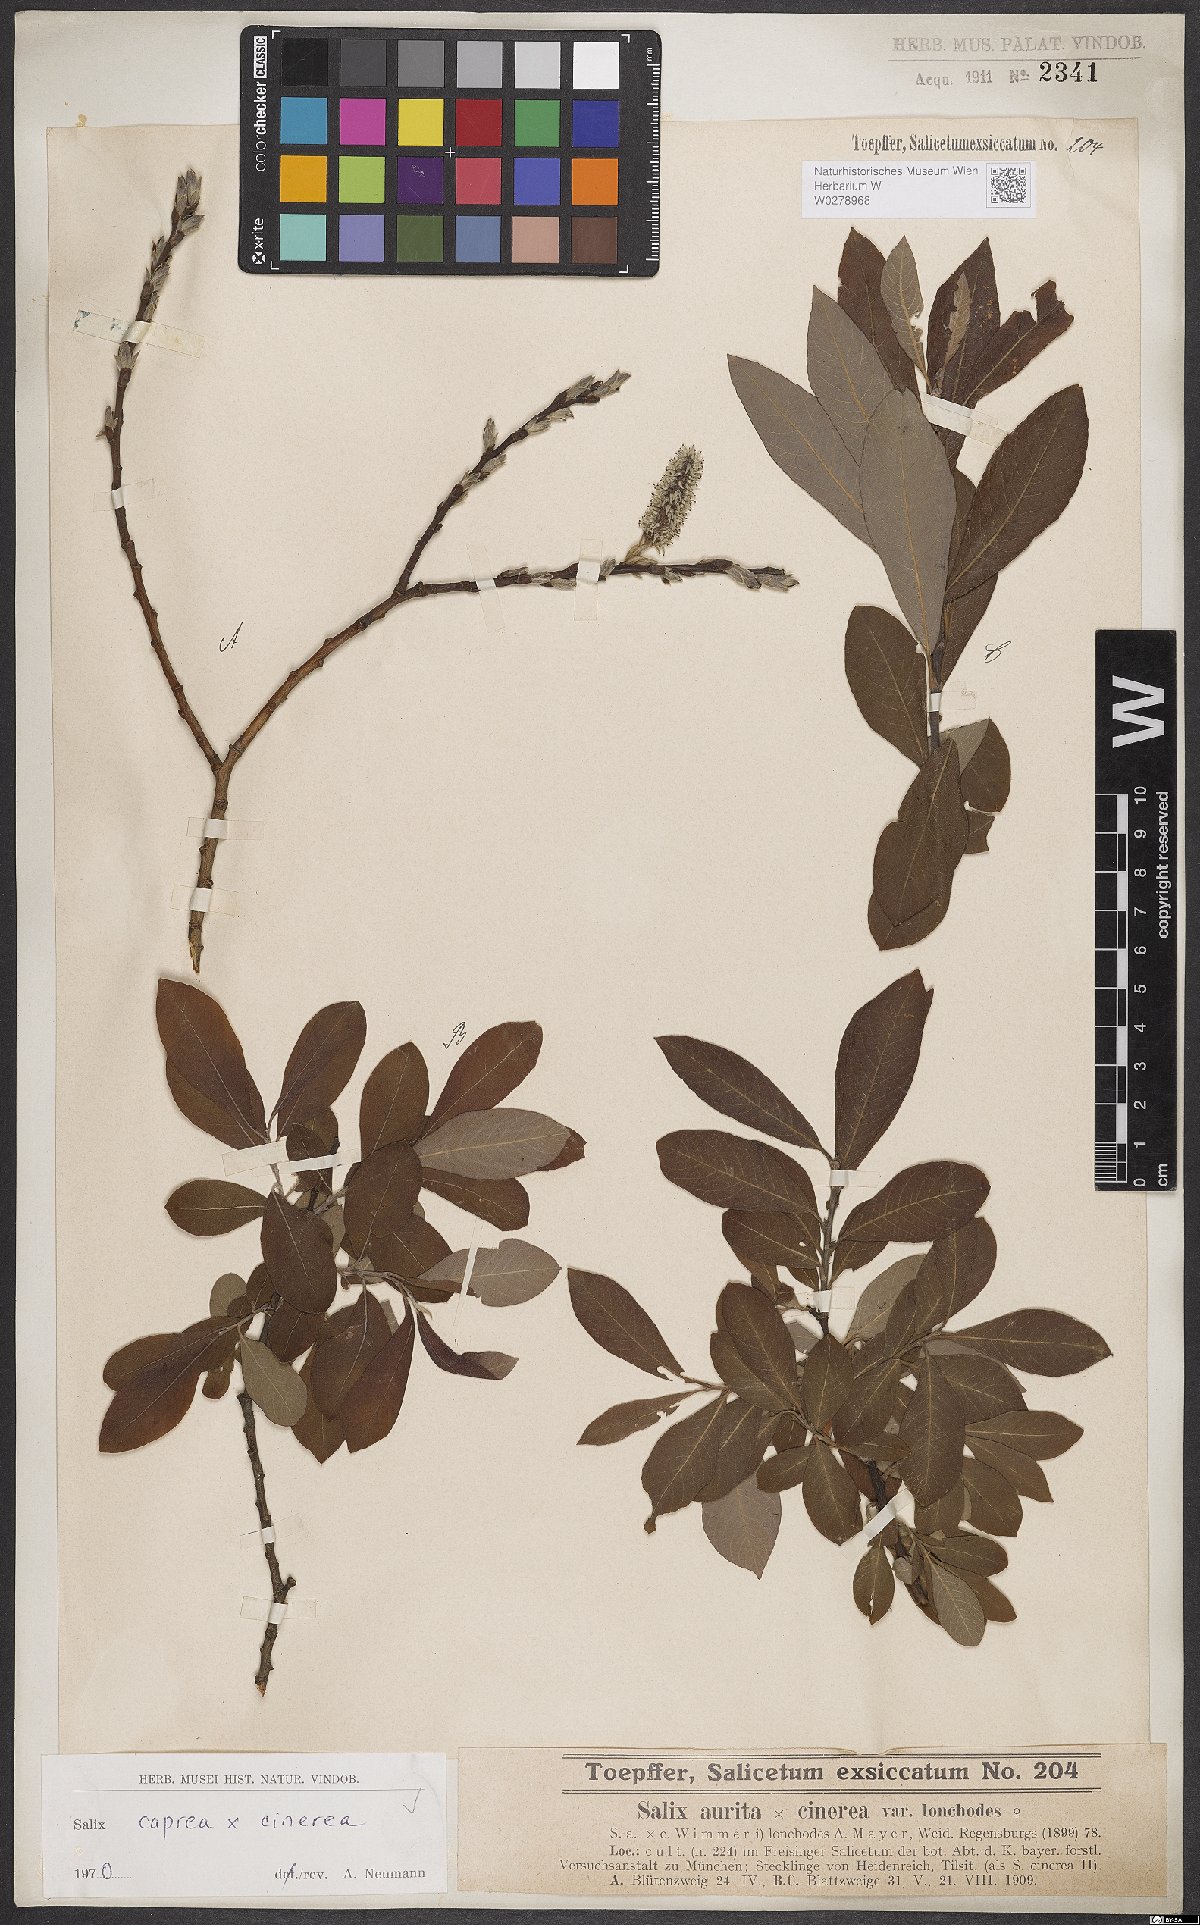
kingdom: Plantae
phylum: Tracheophyta
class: Magnoliopsida
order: Malpighiales
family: Salicaceae
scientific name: Salicaceae
